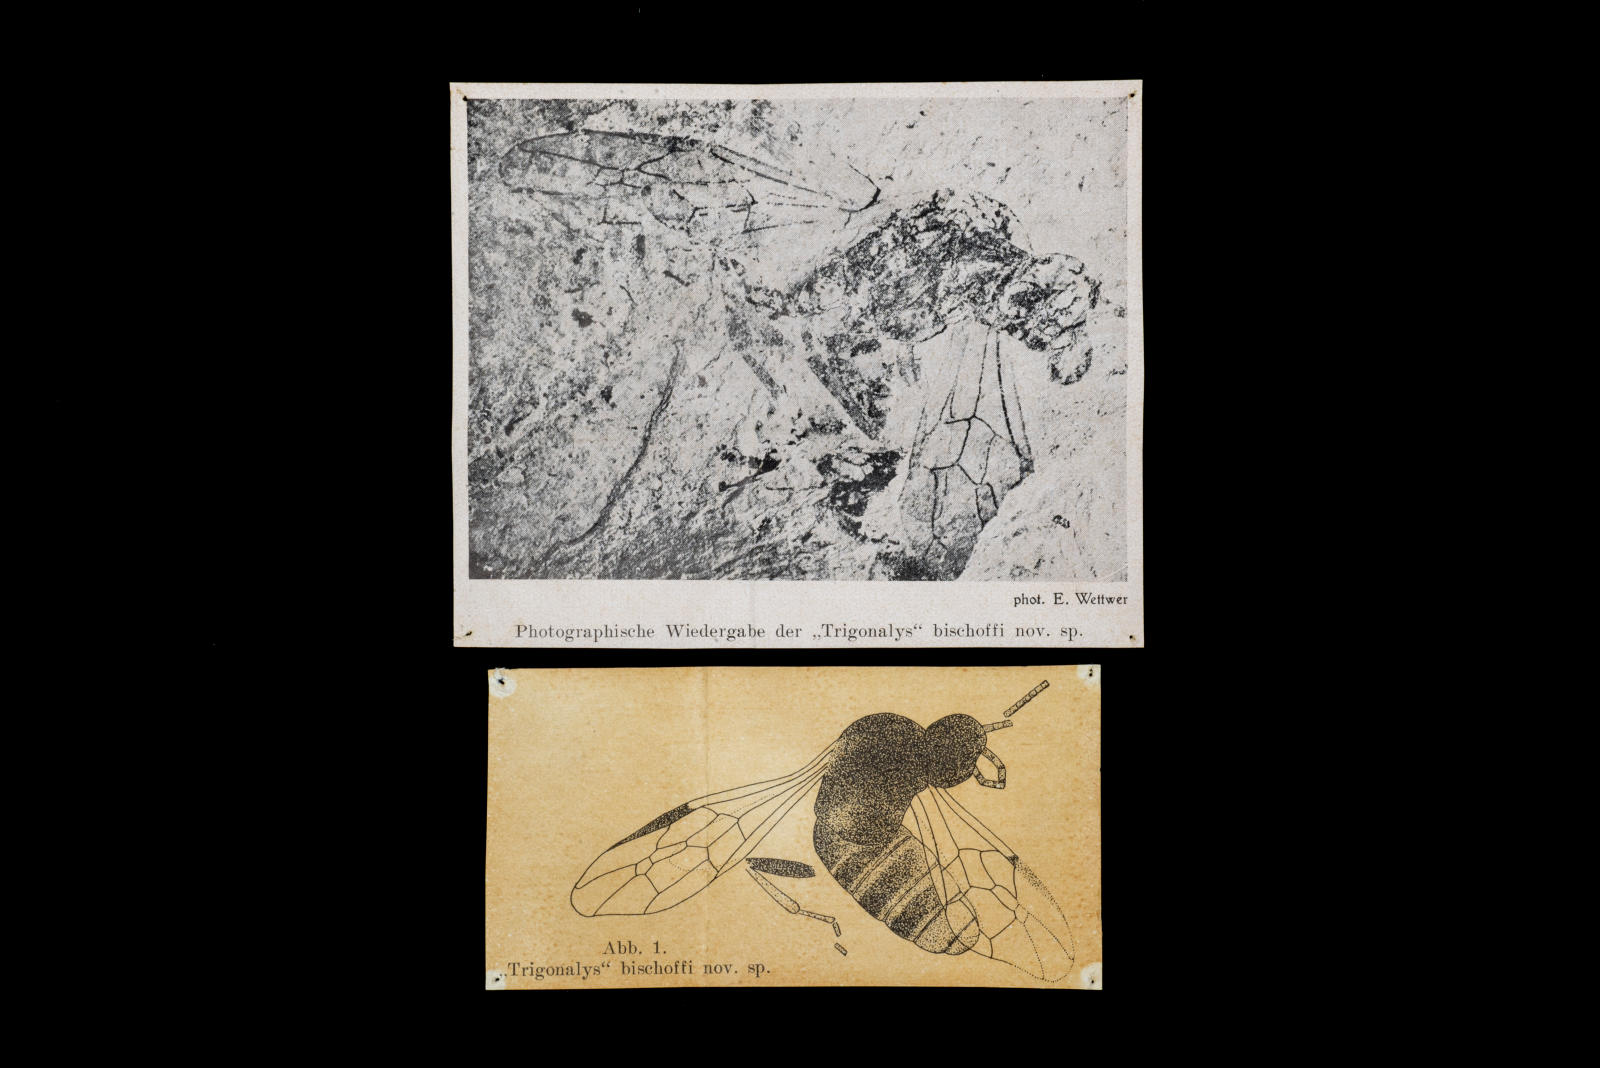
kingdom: Animalia
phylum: Arthropoda
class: Insecta
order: Hymenoptera
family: Trigonalidae
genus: Trigonalys
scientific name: Trigonalys bischoffi
